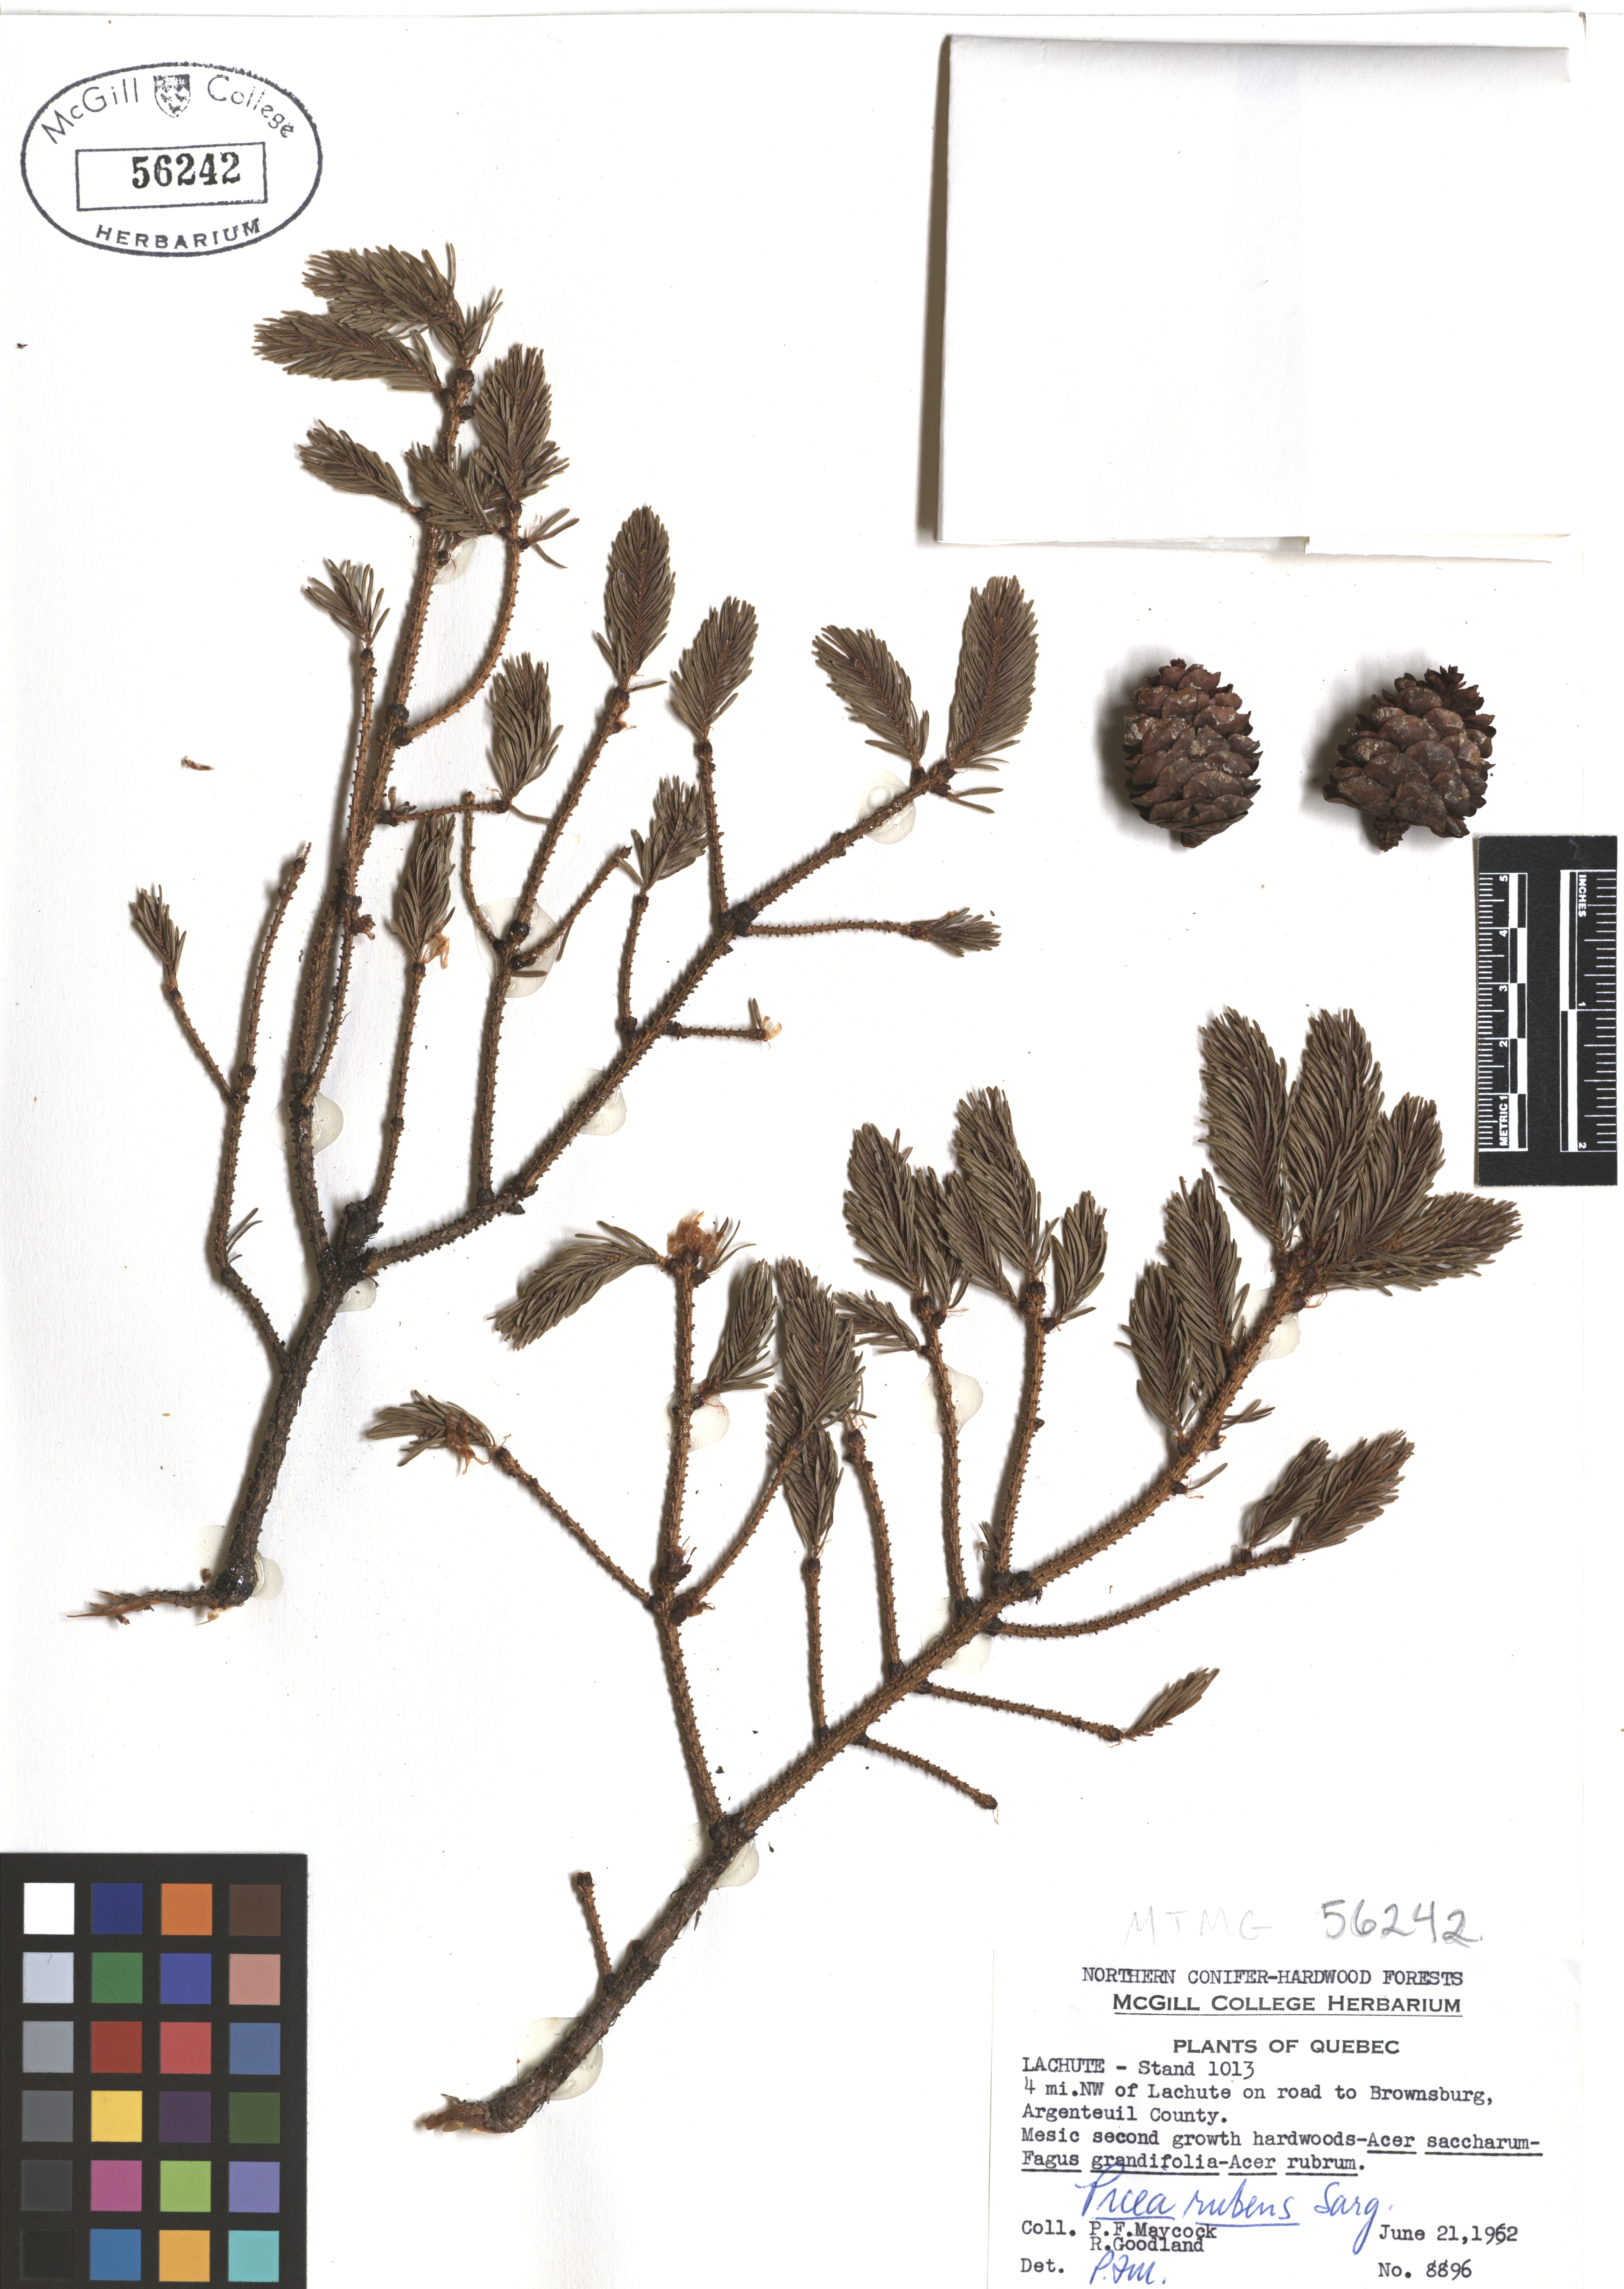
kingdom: Plantae
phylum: Tracheophyta
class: Pinopsida
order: Pinales
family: Pinaceae
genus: Picea
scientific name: Picea rubens
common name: Red spruce
